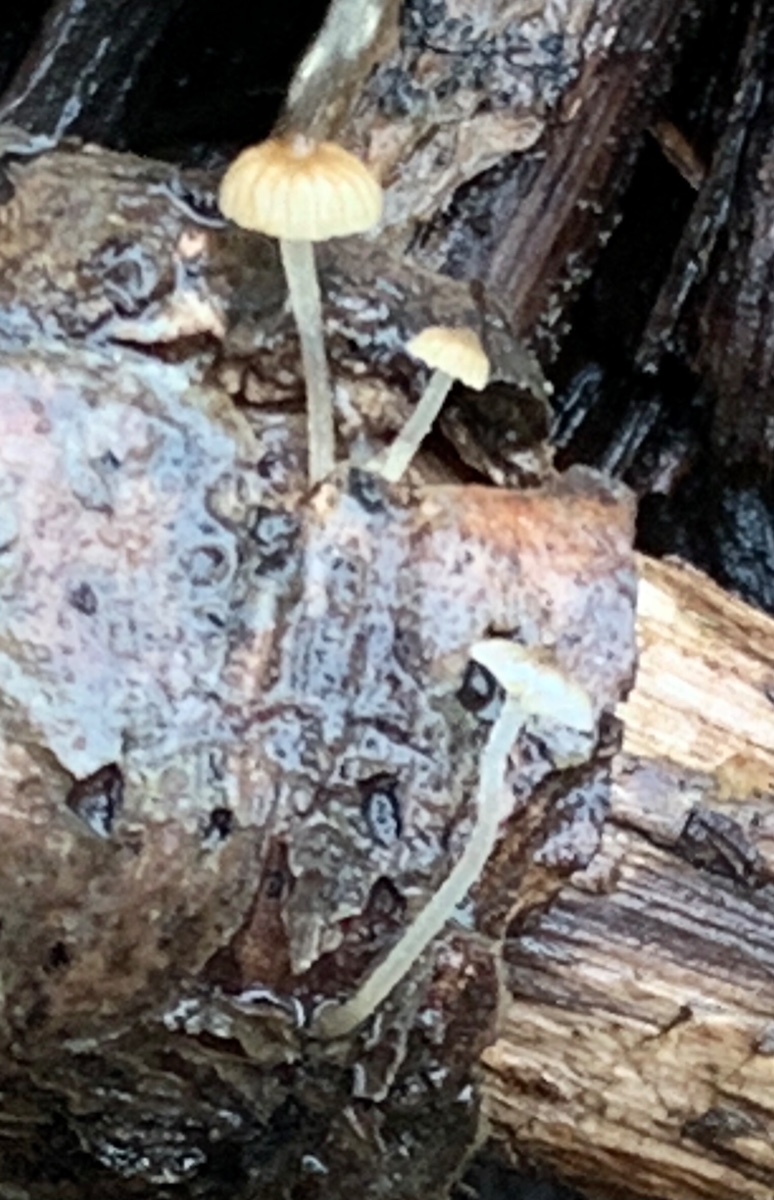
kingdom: Fungi
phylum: Basidiomycota
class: Agaricomycetes
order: Agaricales
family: Porotheleaceae
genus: Phloeomana
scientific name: Phloeomana speirea
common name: kvist-huesvamp
